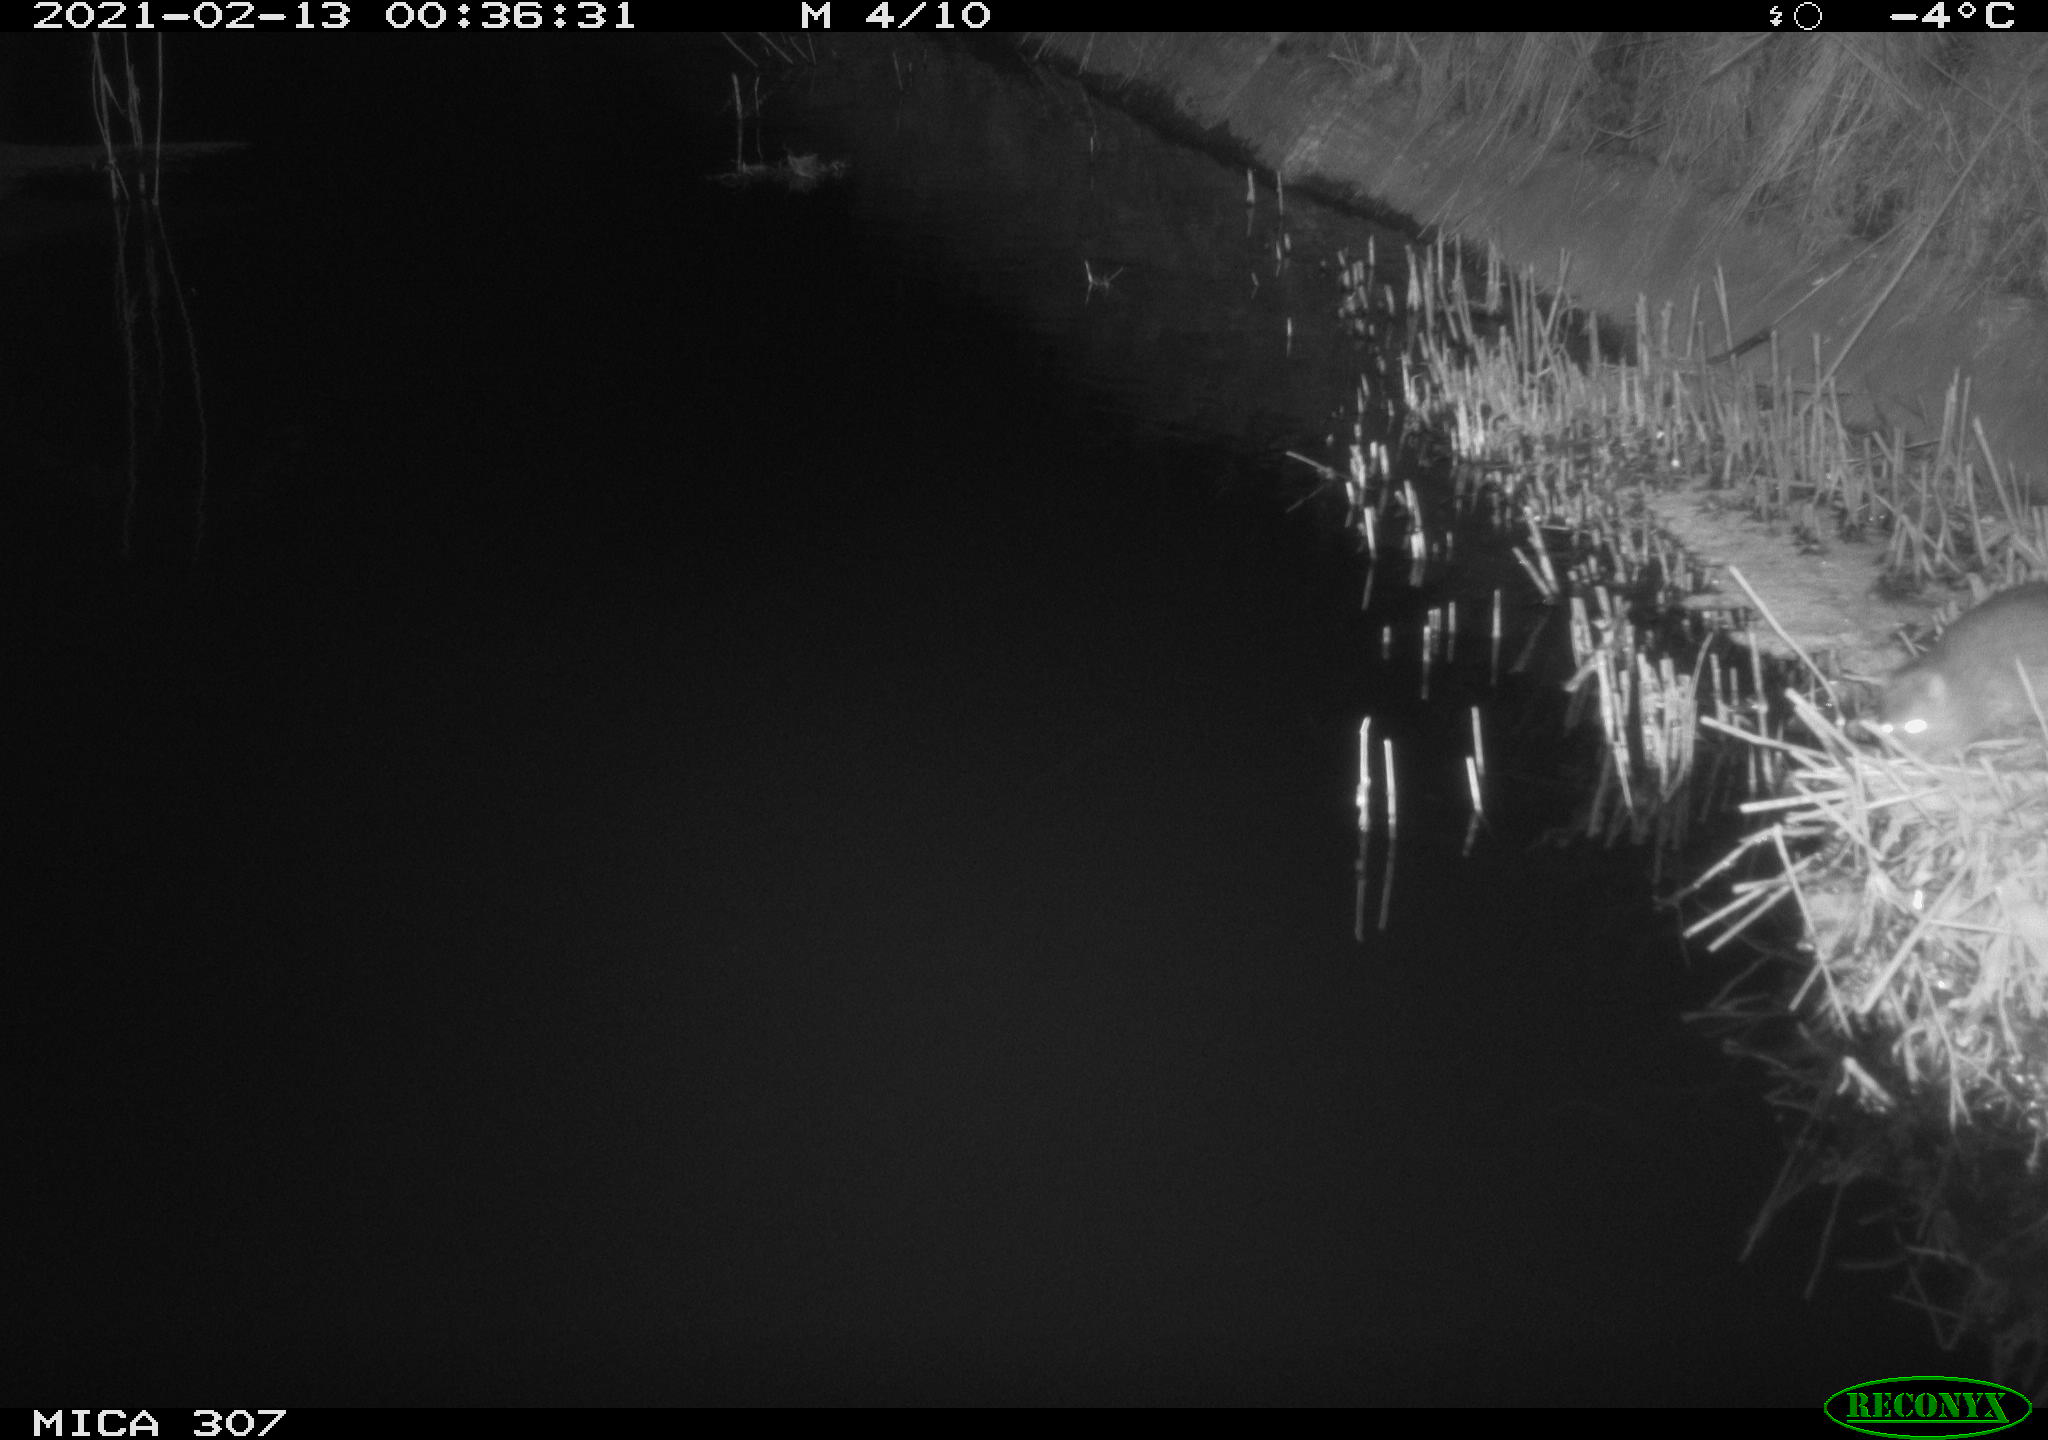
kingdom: Animalia
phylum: Chordata
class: Mammalia
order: Rodentia
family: Muridae
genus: Rattus
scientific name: Rattus norvegicus
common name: Brown rat
